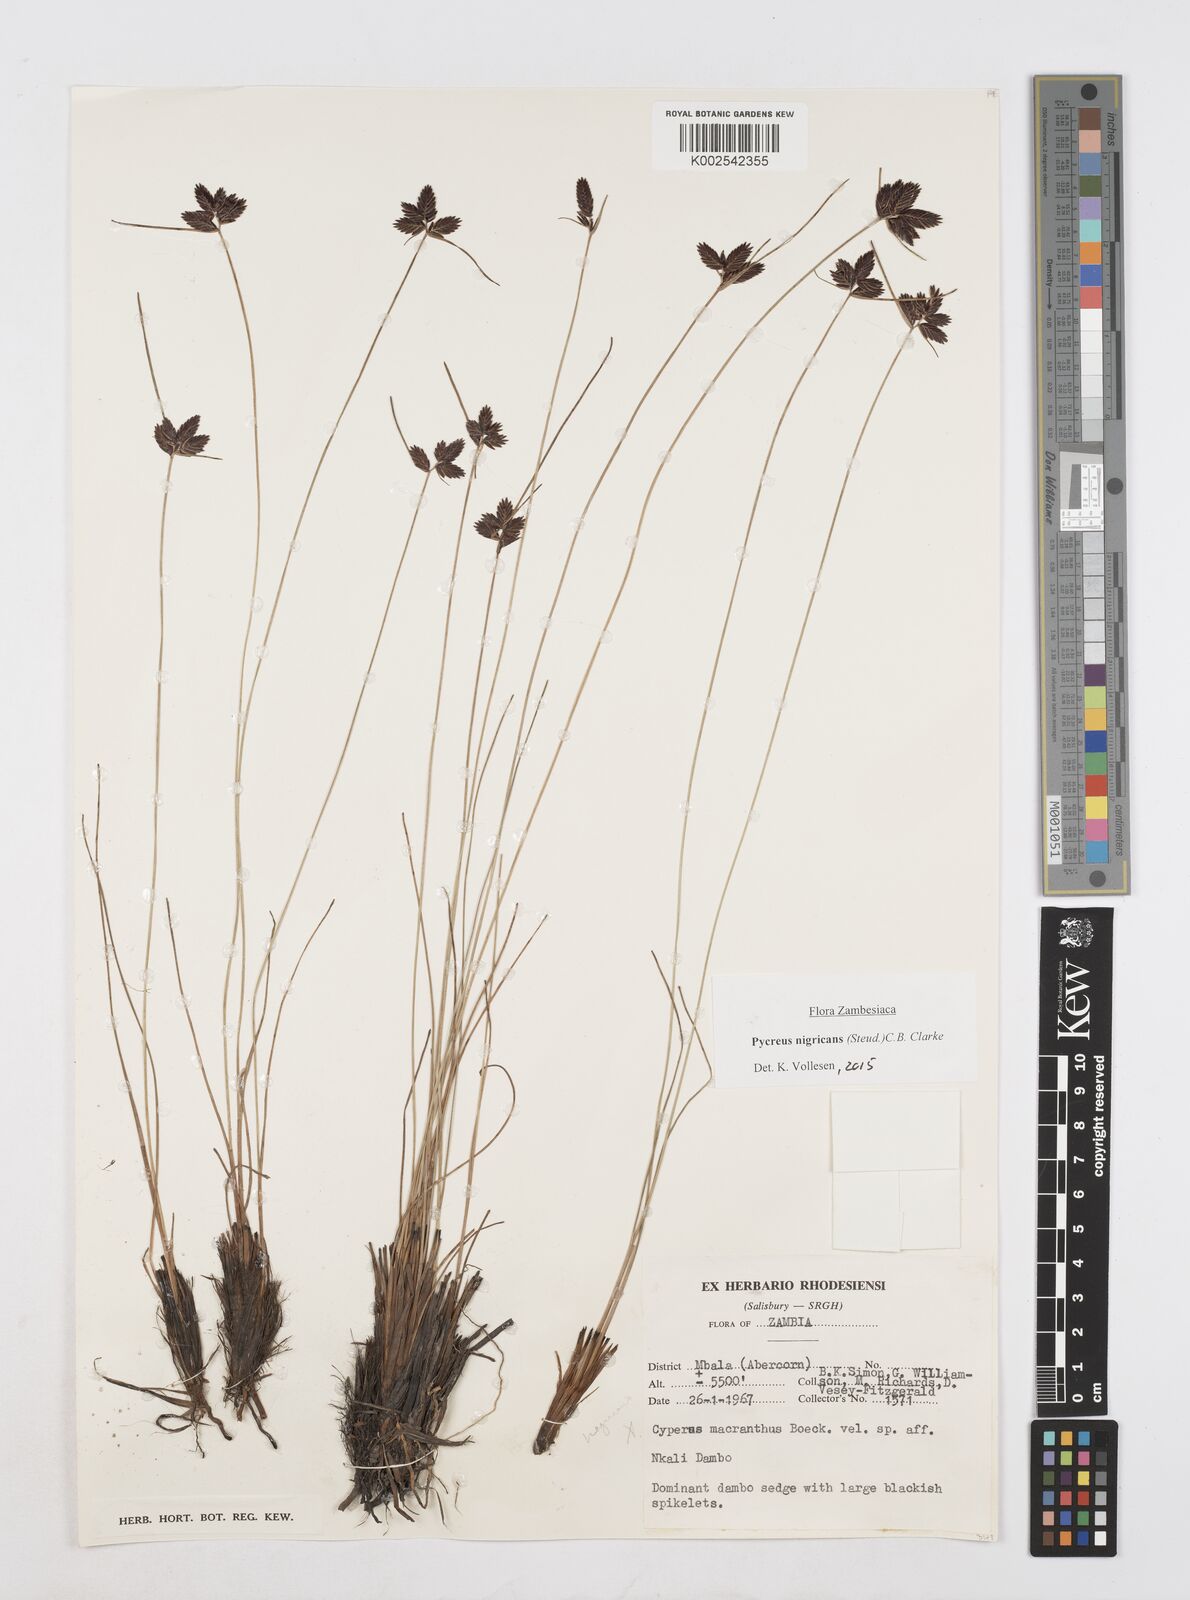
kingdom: Plantae
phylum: Tracheophyta
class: Liliopsida
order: Poales
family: Cyperaceae
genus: Cyperus
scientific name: Cyperus nigricans
